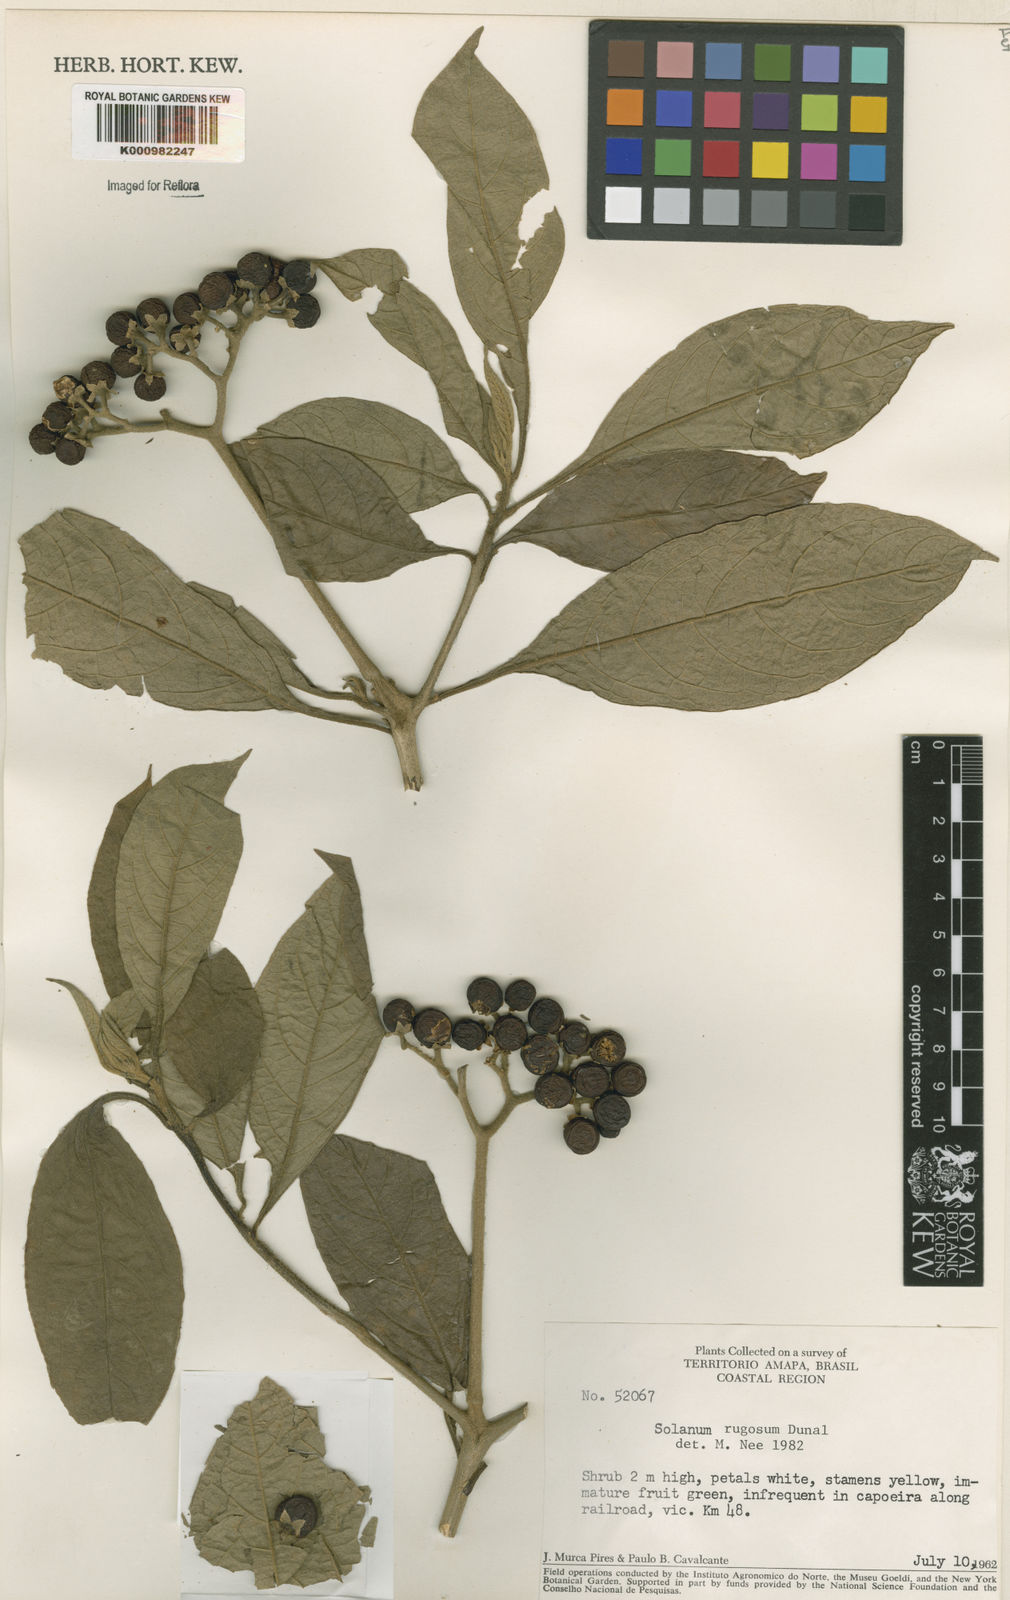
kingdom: Plantae
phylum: Tracheophyta
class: Magnoliopsida
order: Solanales
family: Solanaceae
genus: Solanum
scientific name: Solanum rugosum
